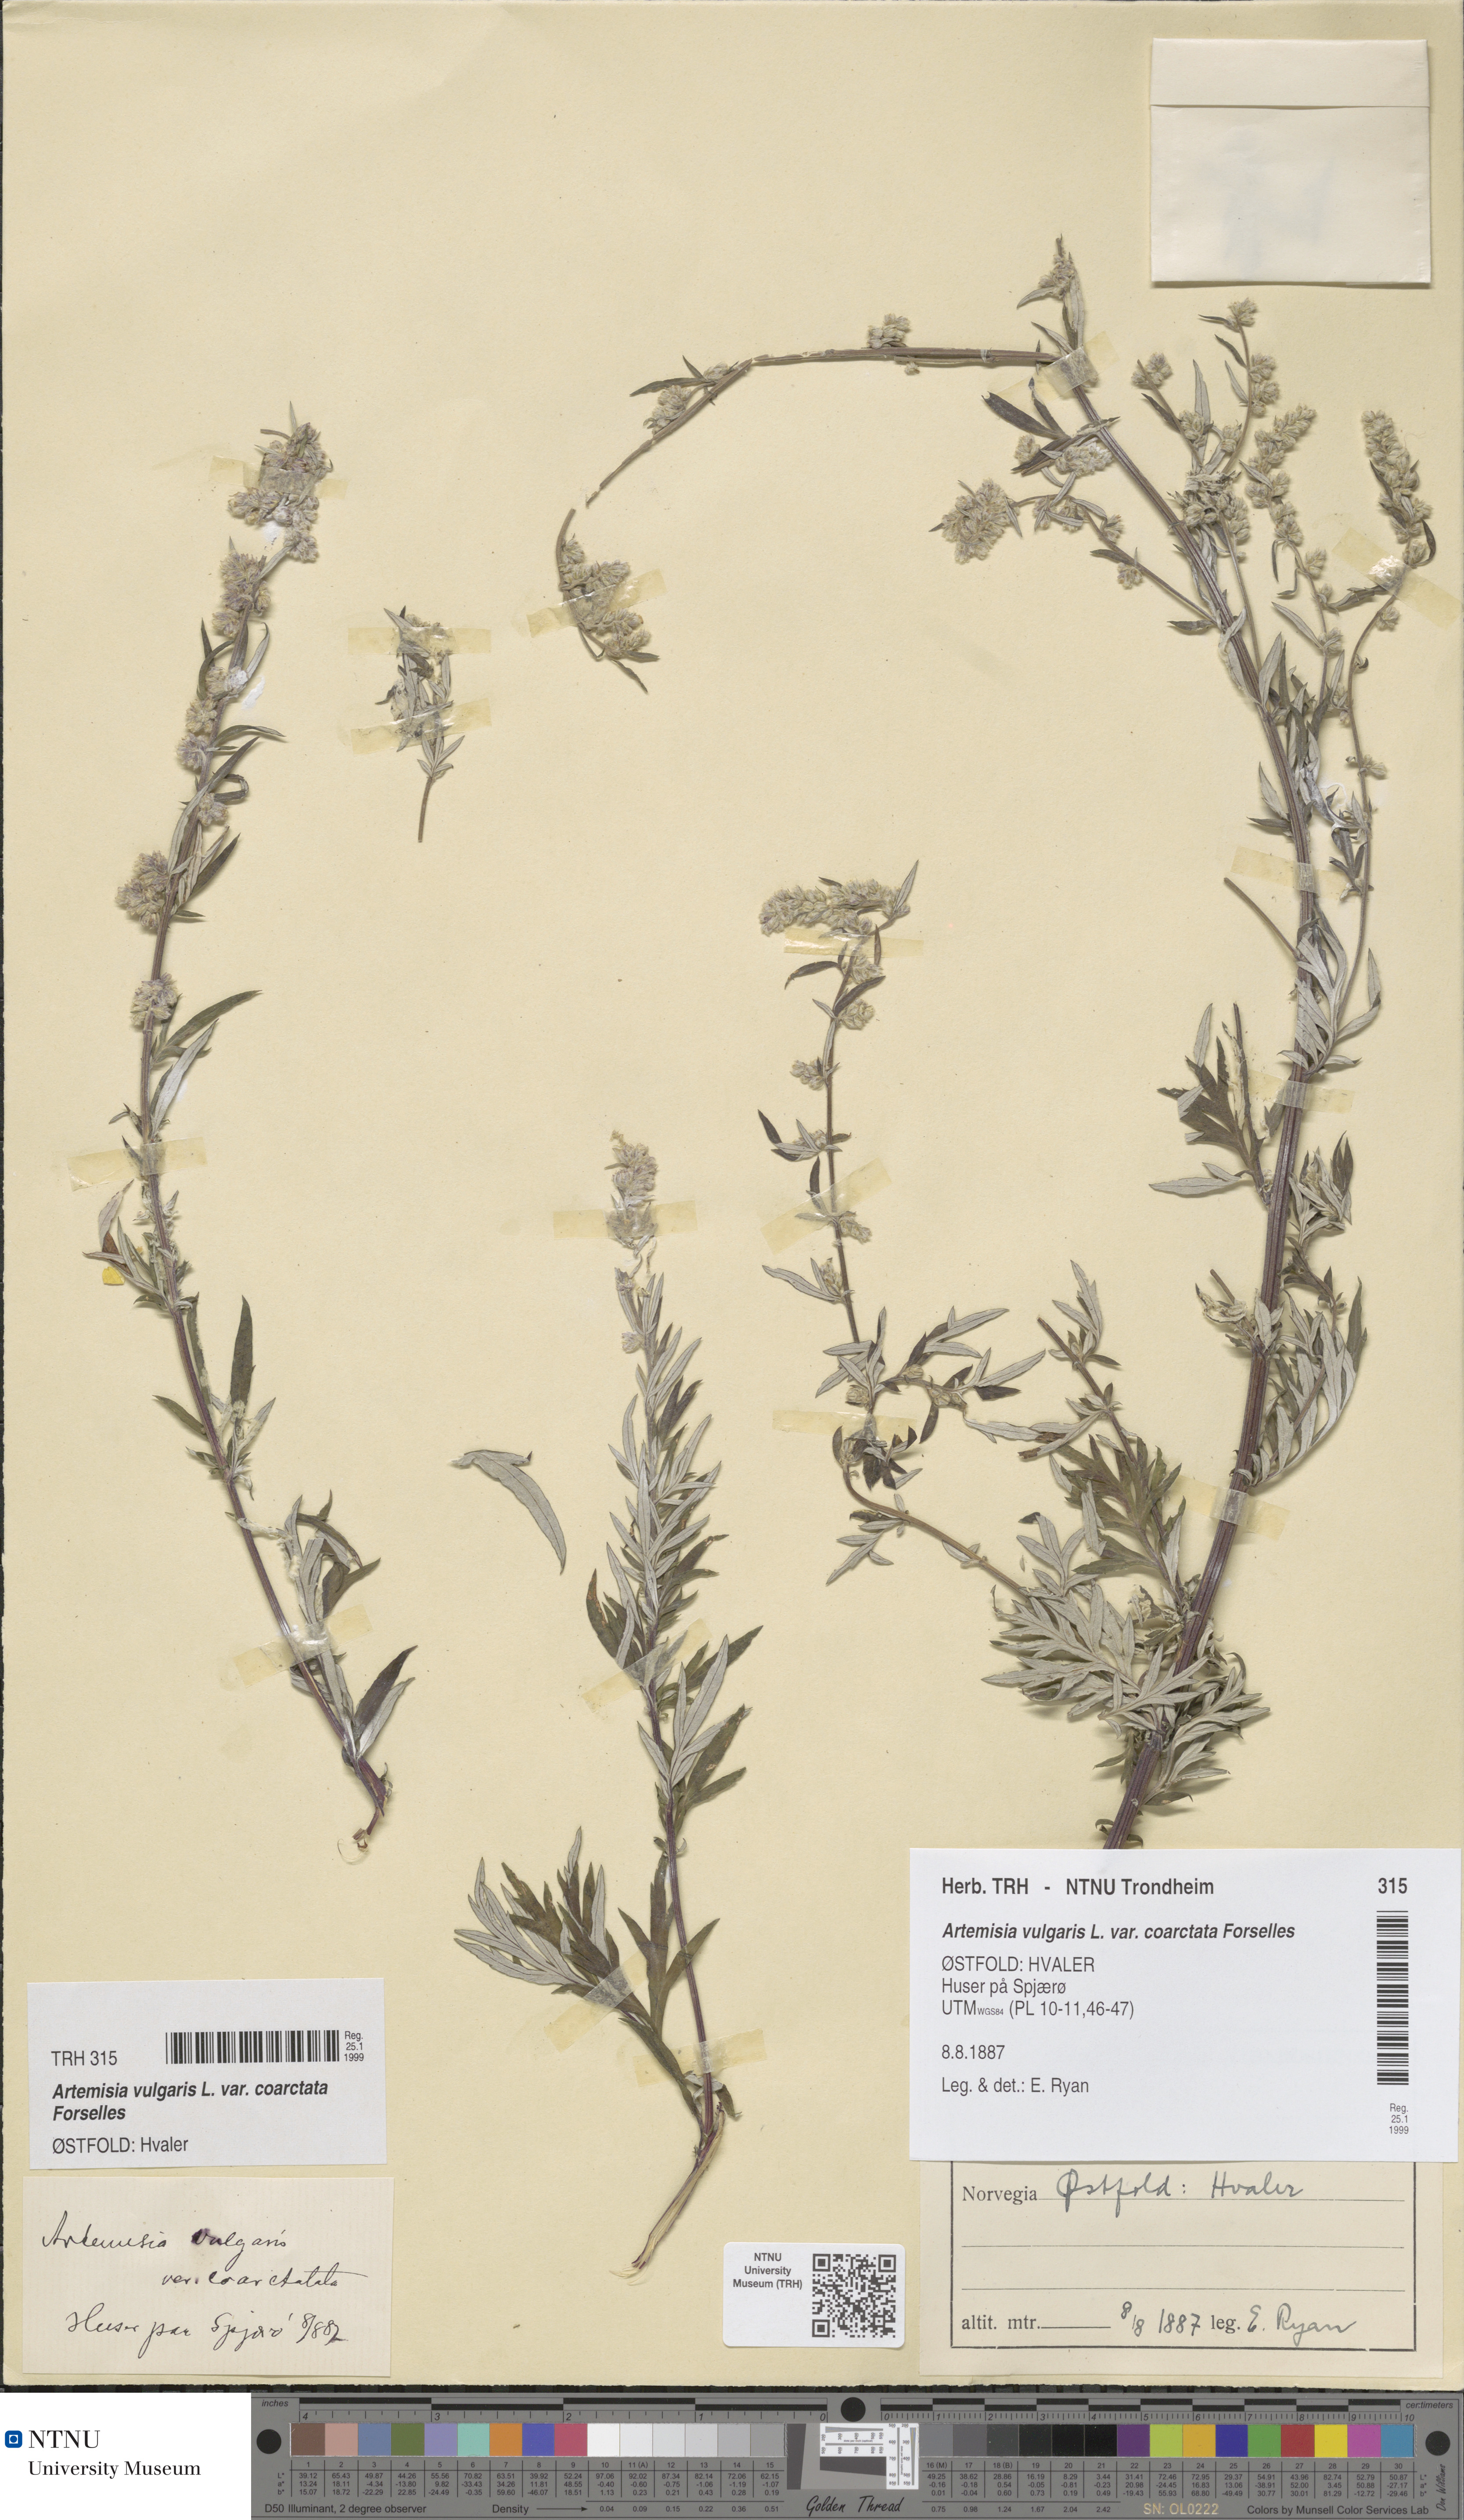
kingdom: Plantae
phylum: Tracheophyta
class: Magnoliopsida
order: Asterales
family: Asteraceae
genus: Artemisia
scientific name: Artemisia vulgaris
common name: Mugwort
